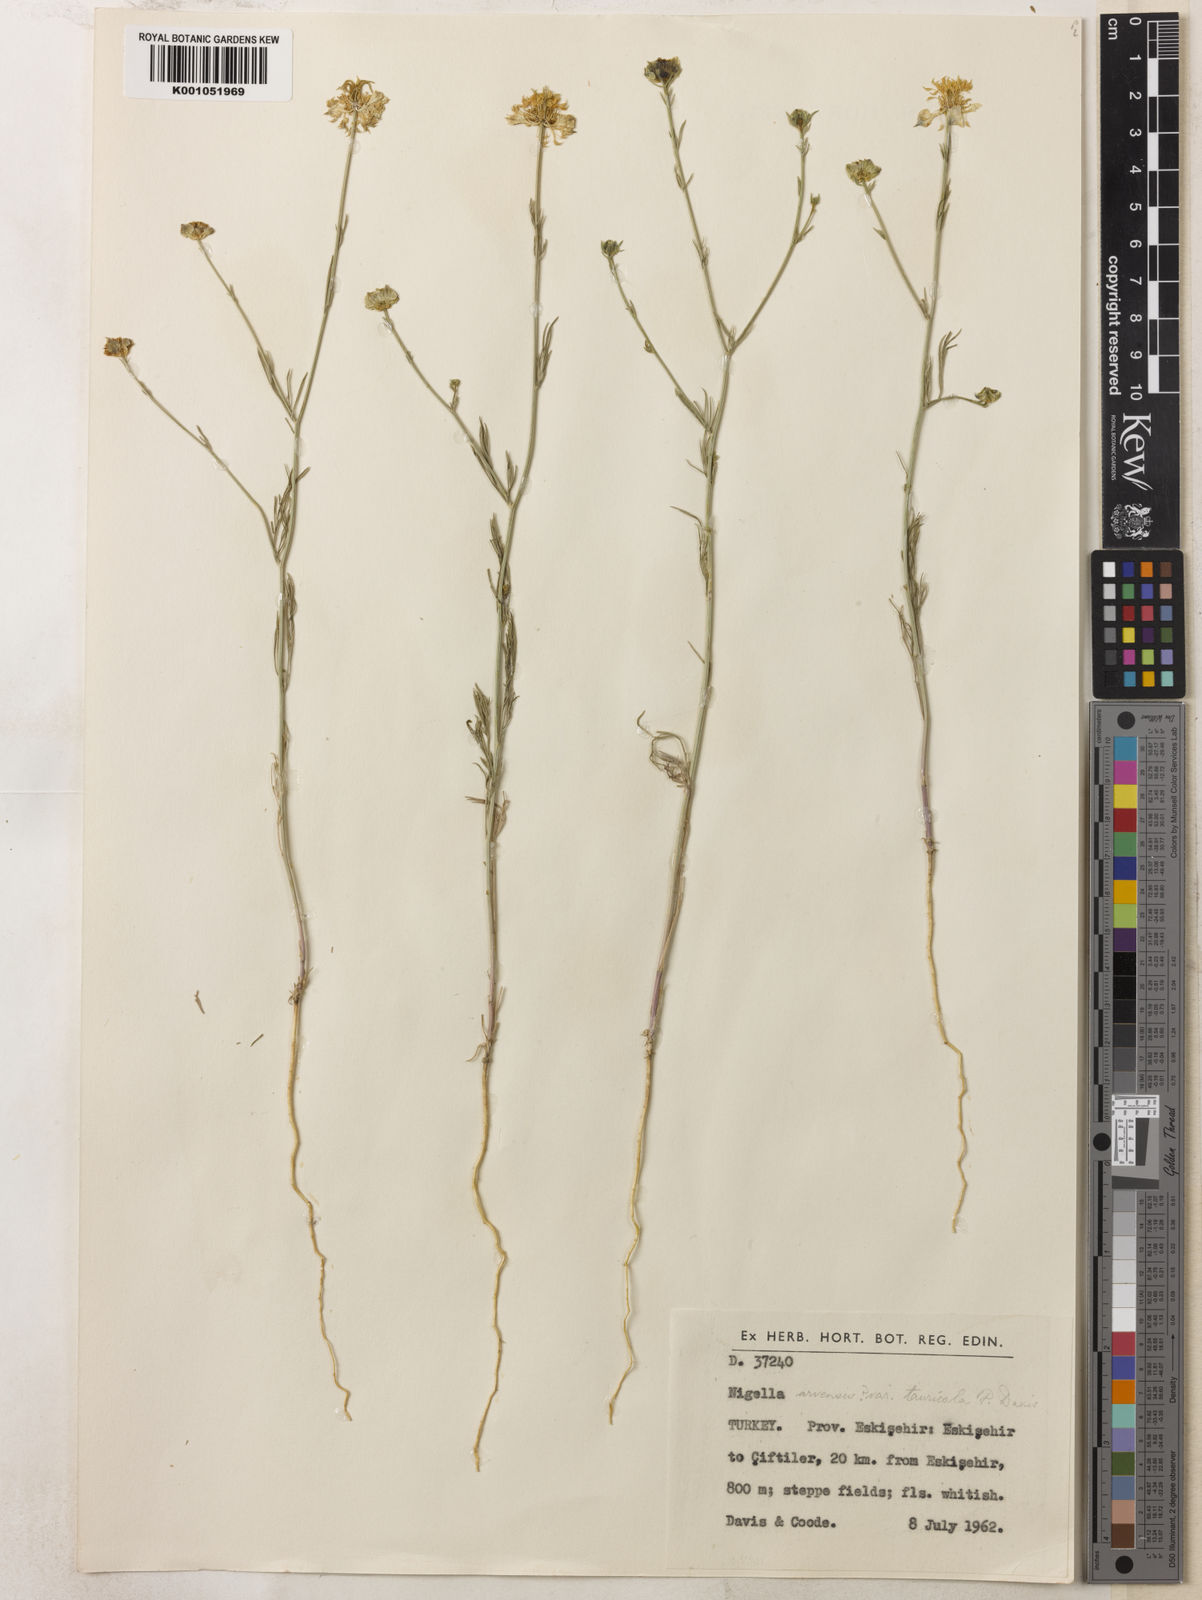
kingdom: Plantae
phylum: Tracheophyta
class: Magnoliopsida
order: Ranunculales
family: Ranunculaceae
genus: Nigella
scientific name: Nigella arvensis
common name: Wild fennel-flower
